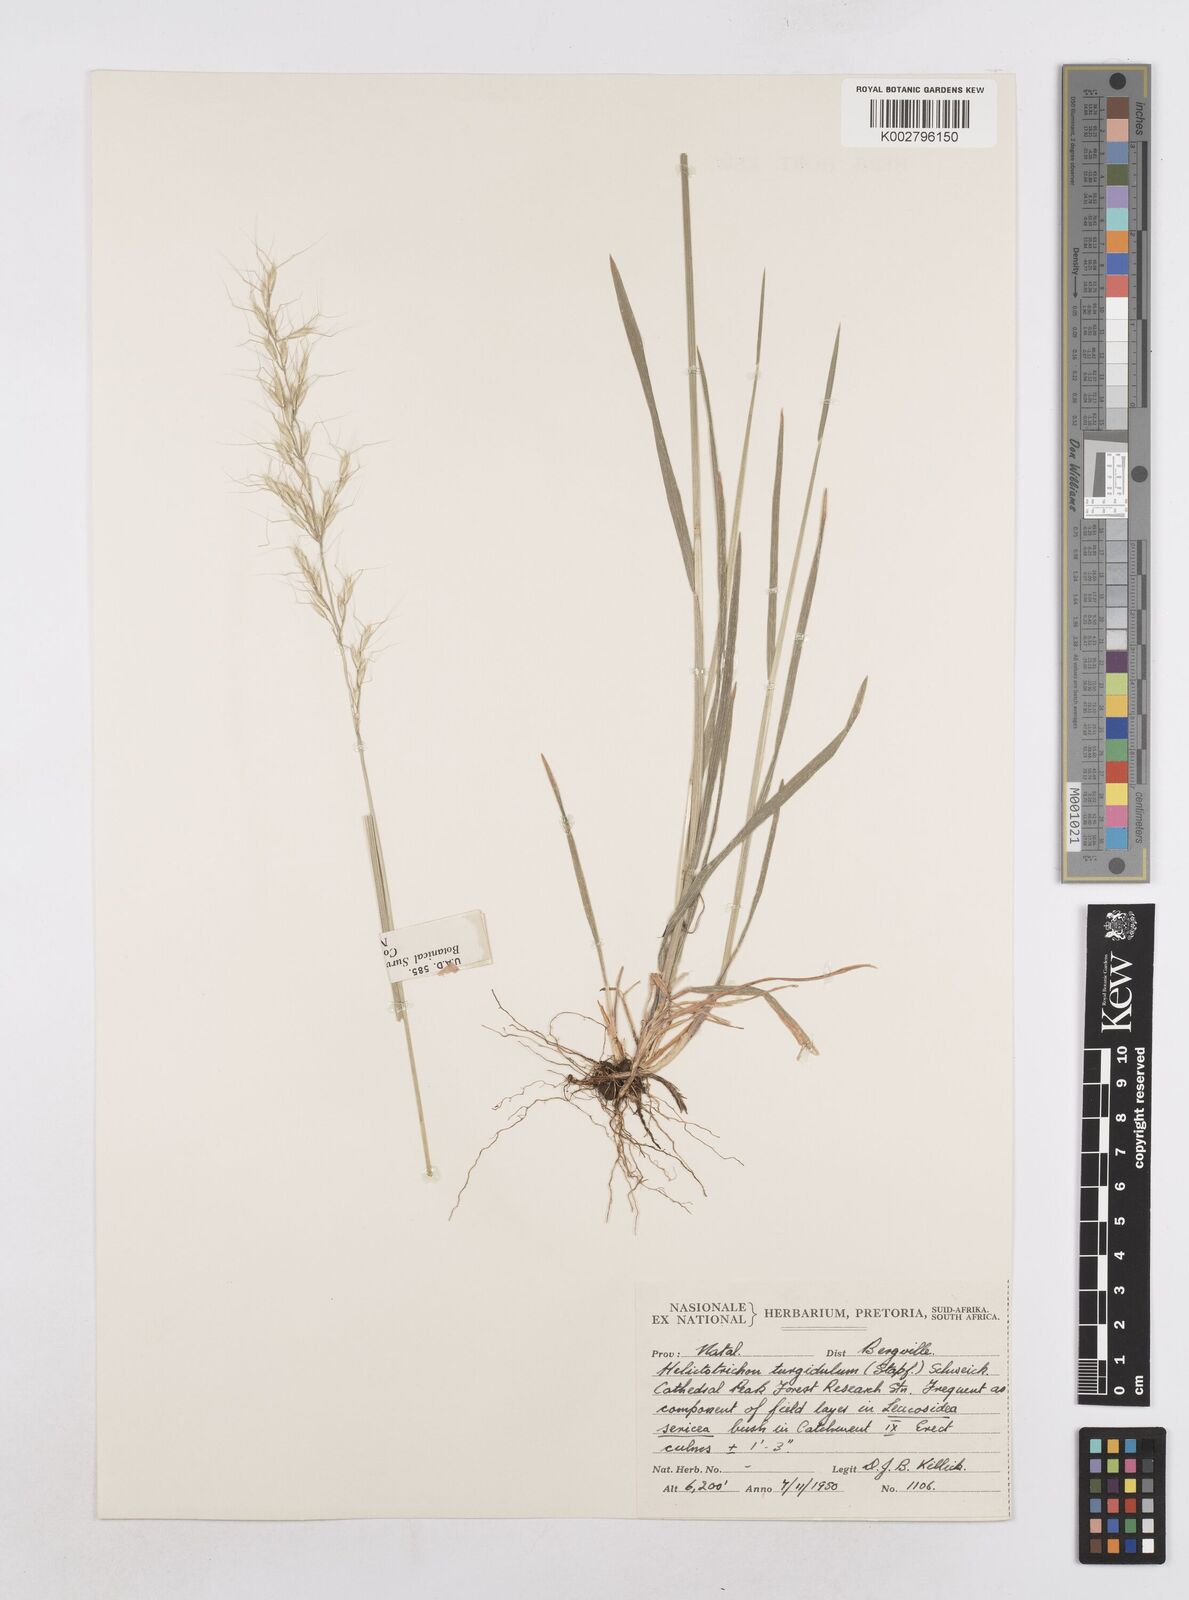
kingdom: Plantae
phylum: Tracheophyta
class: Liliopsida
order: Poales
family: Poaceae
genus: Trisetopsis
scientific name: Trisetopsis imberbis
